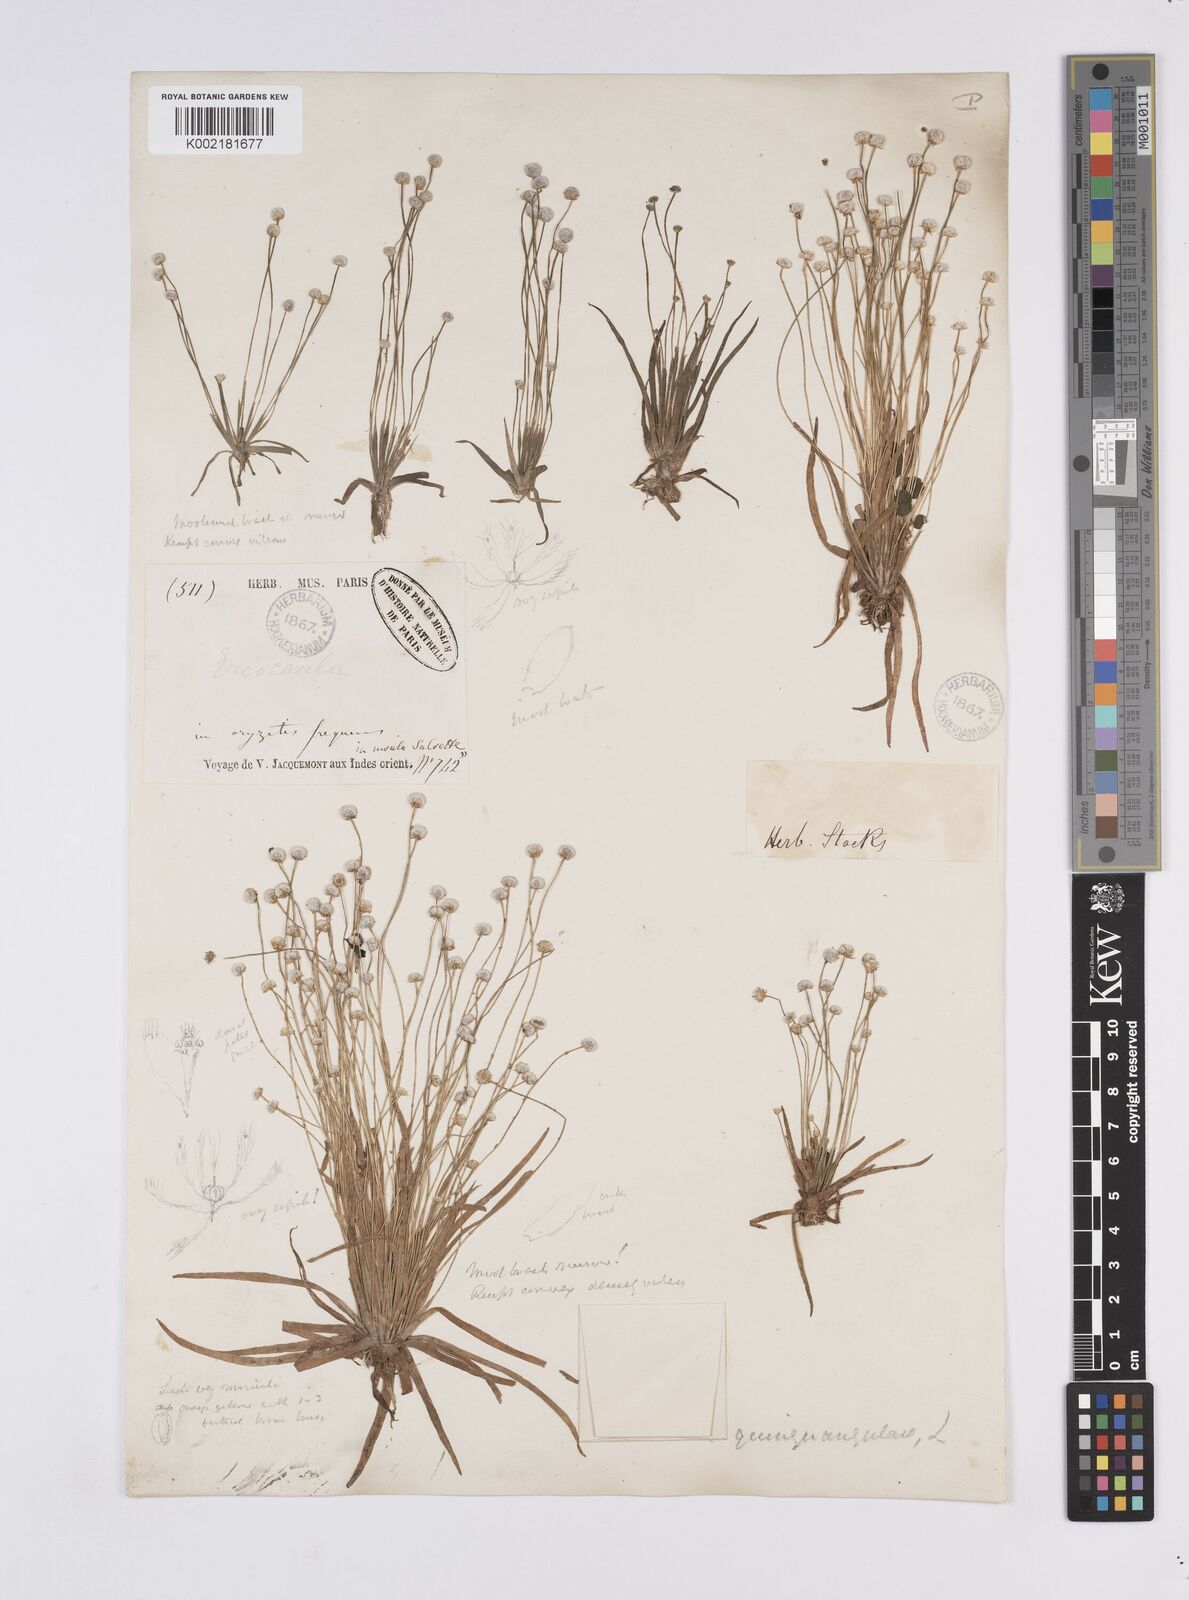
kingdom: Plantae
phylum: Tracheophyta
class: Liliopsida
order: Poales
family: Eriocaulaceae
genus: Eriocaulon
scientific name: Eriocaulon quinquangulare
